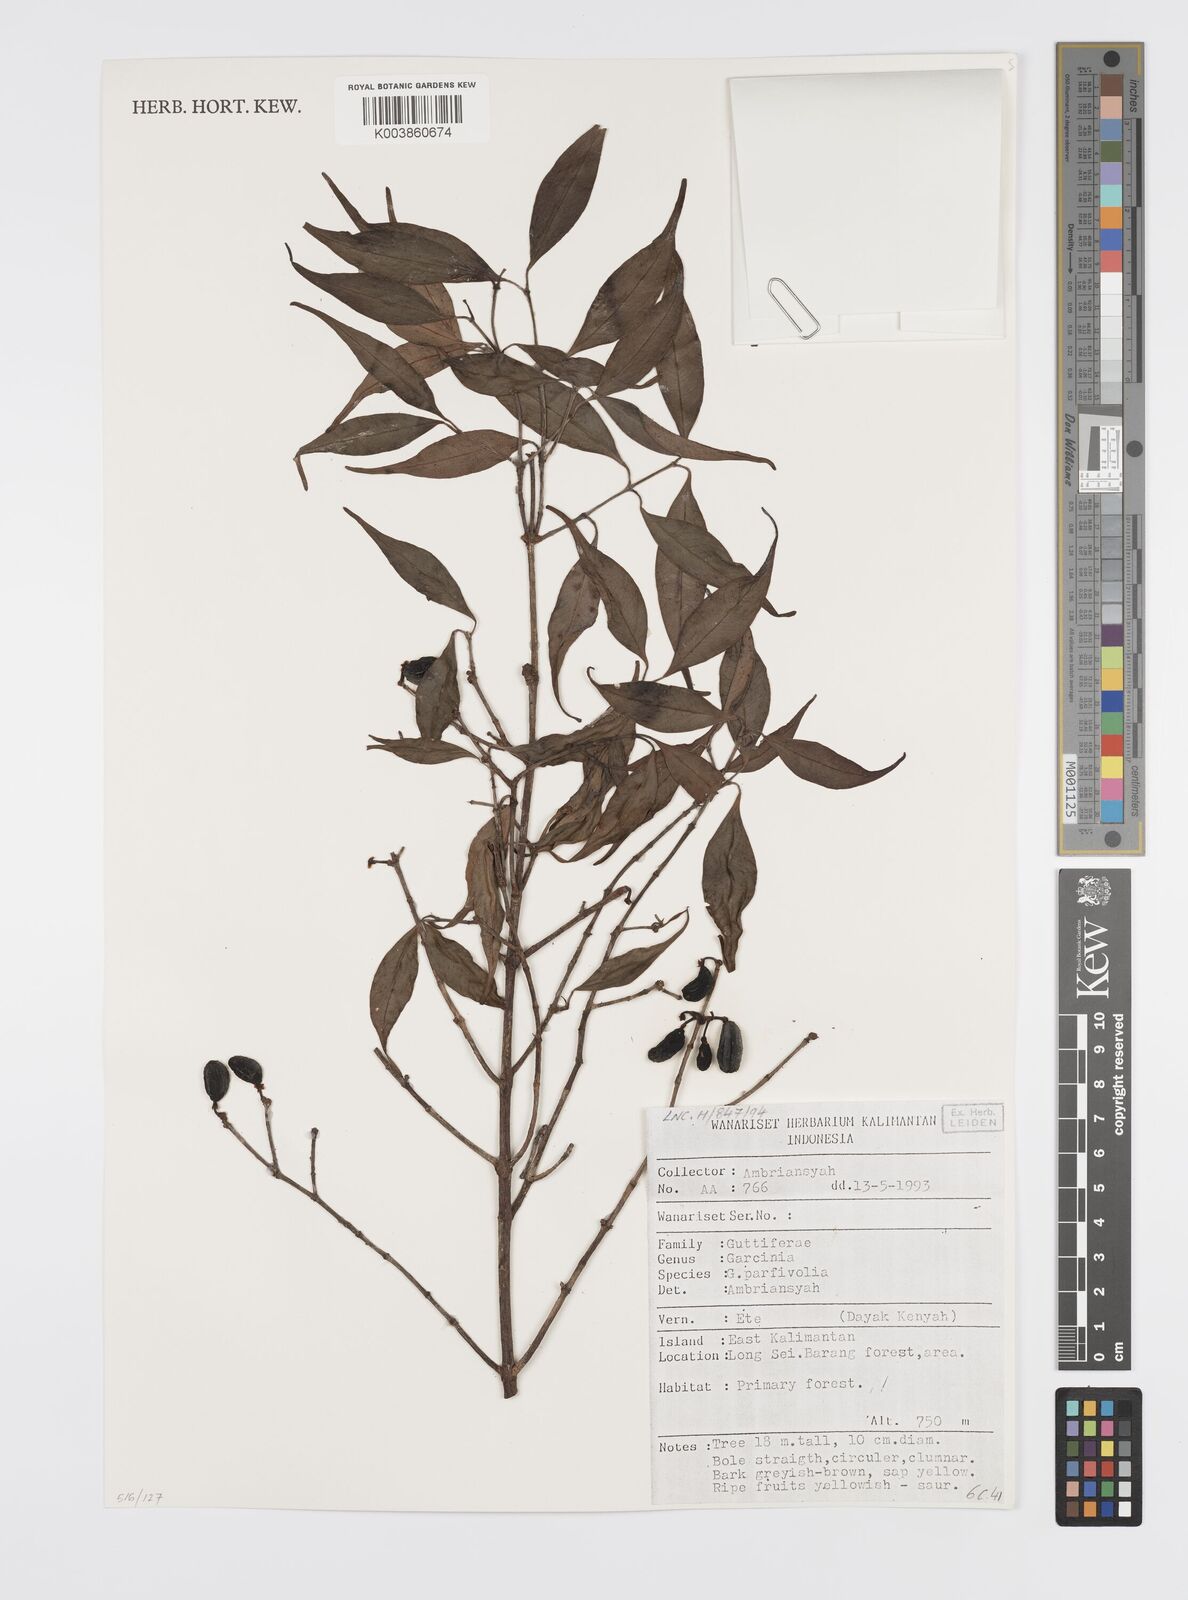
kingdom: Plantae
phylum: Tracheophyta
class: Magnoliopsida
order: Malpighiales
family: Clusiaceae
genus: Garcinia
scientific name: Garcinia parvifolia
